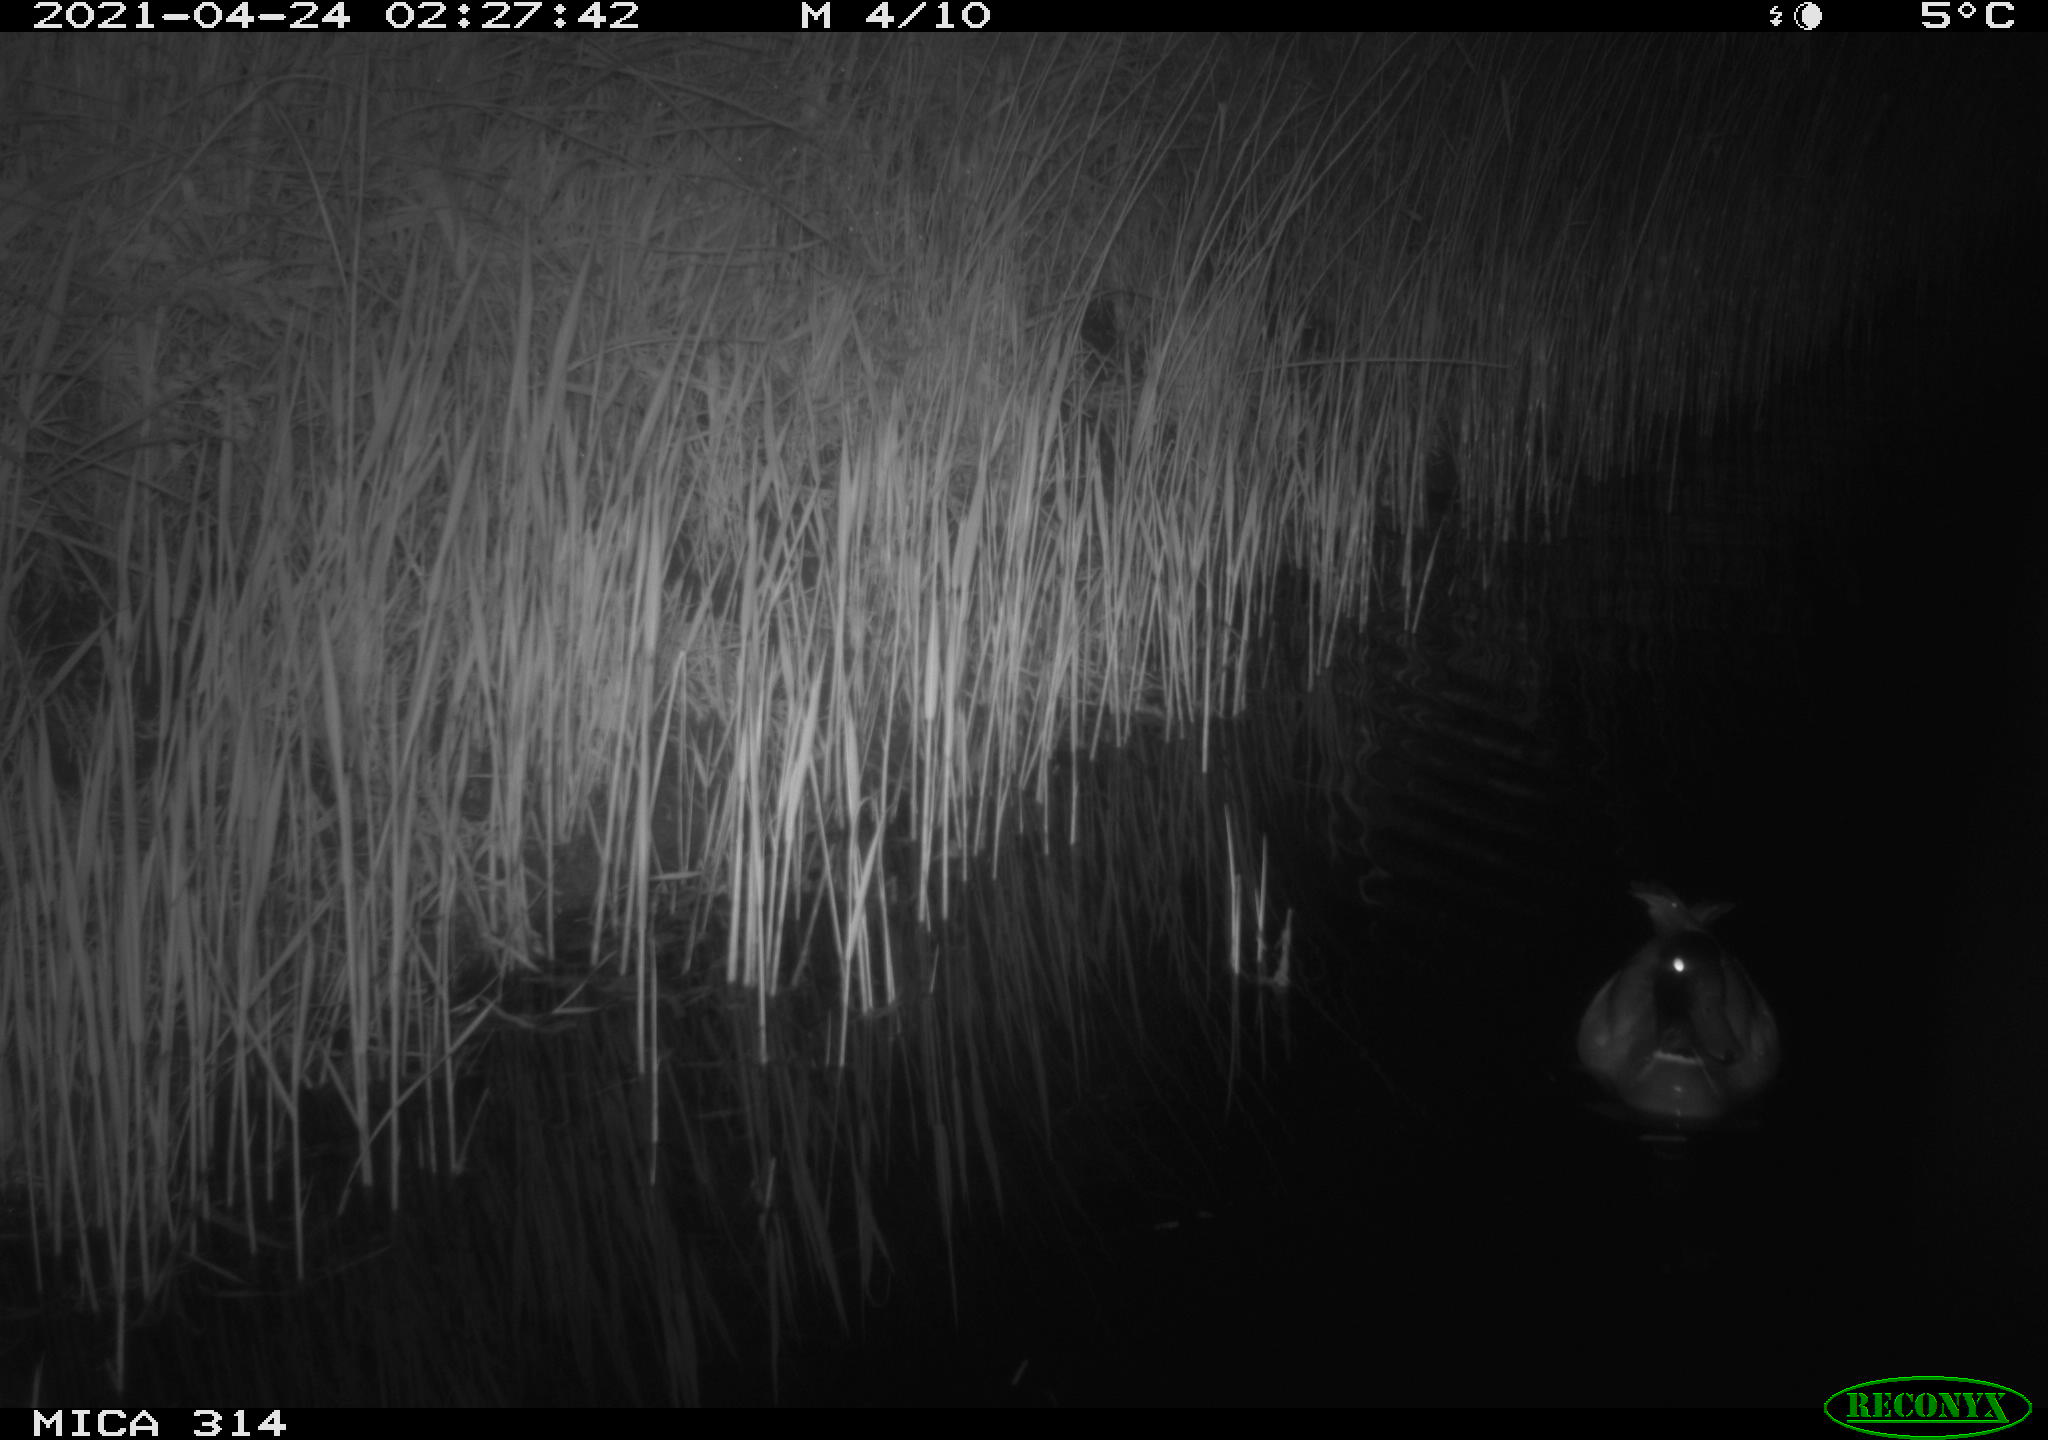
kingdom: Animalia
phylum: Chordata
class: Aves
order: Anseriformes
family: Anatidae
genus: Anas
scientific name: Anas platyrhynchos
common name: Mallard
